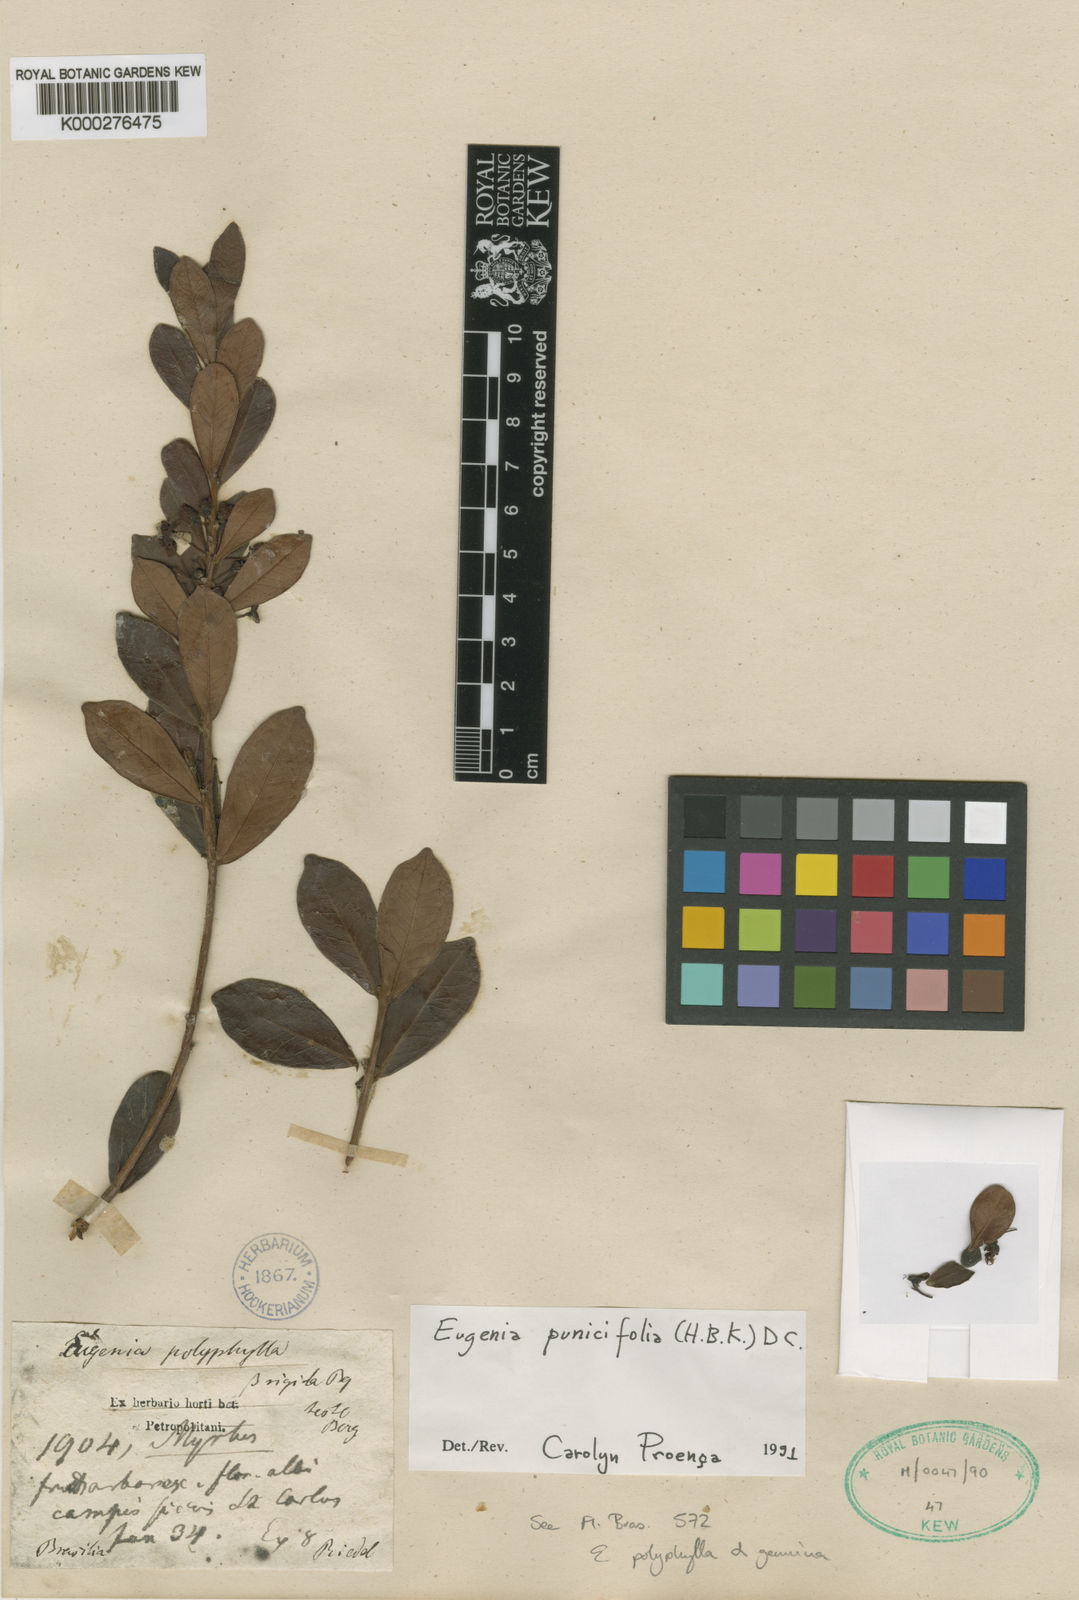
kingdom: Plantae
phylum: Tracheophyta
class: Magnoliopsida
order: Myrtales
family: Myrtaceae
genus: Eugenia
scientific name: Eugenia punicifolia
